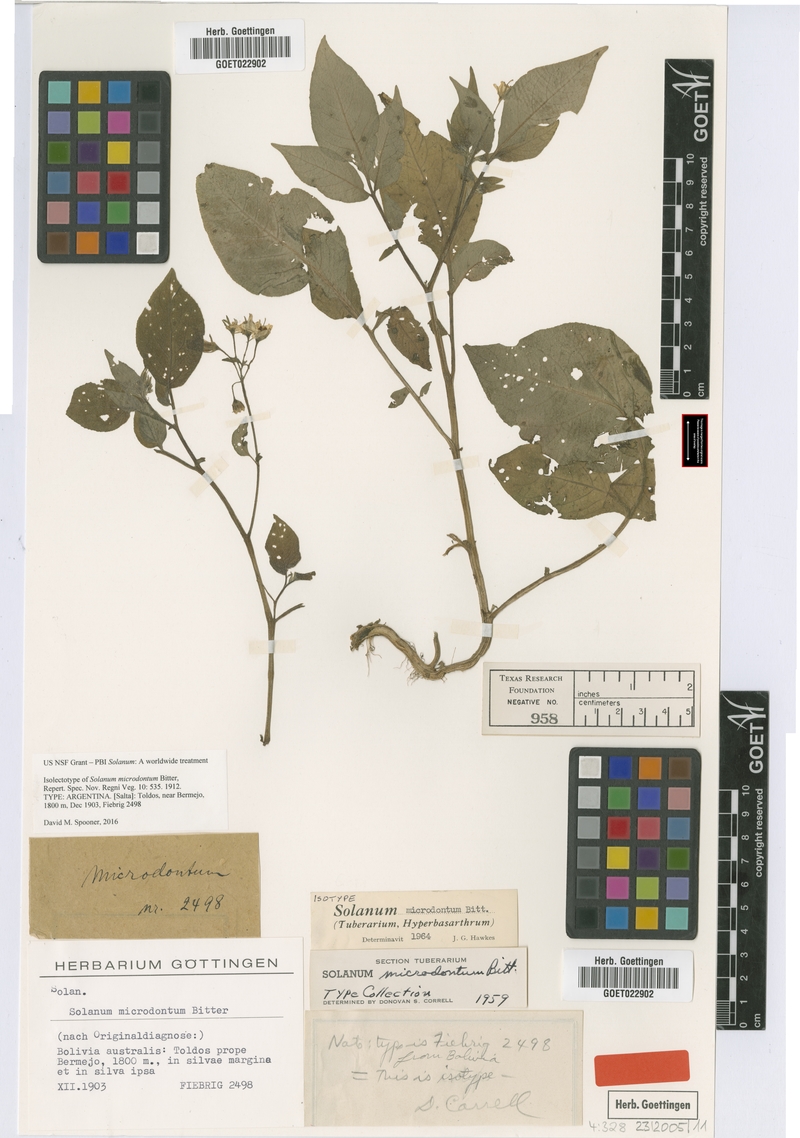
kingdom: Plantae
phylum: Tracheophyta
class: Magnoliopsida
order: Solanales
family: Solanaceae
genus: Solanum
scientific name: Solanum microdontum
